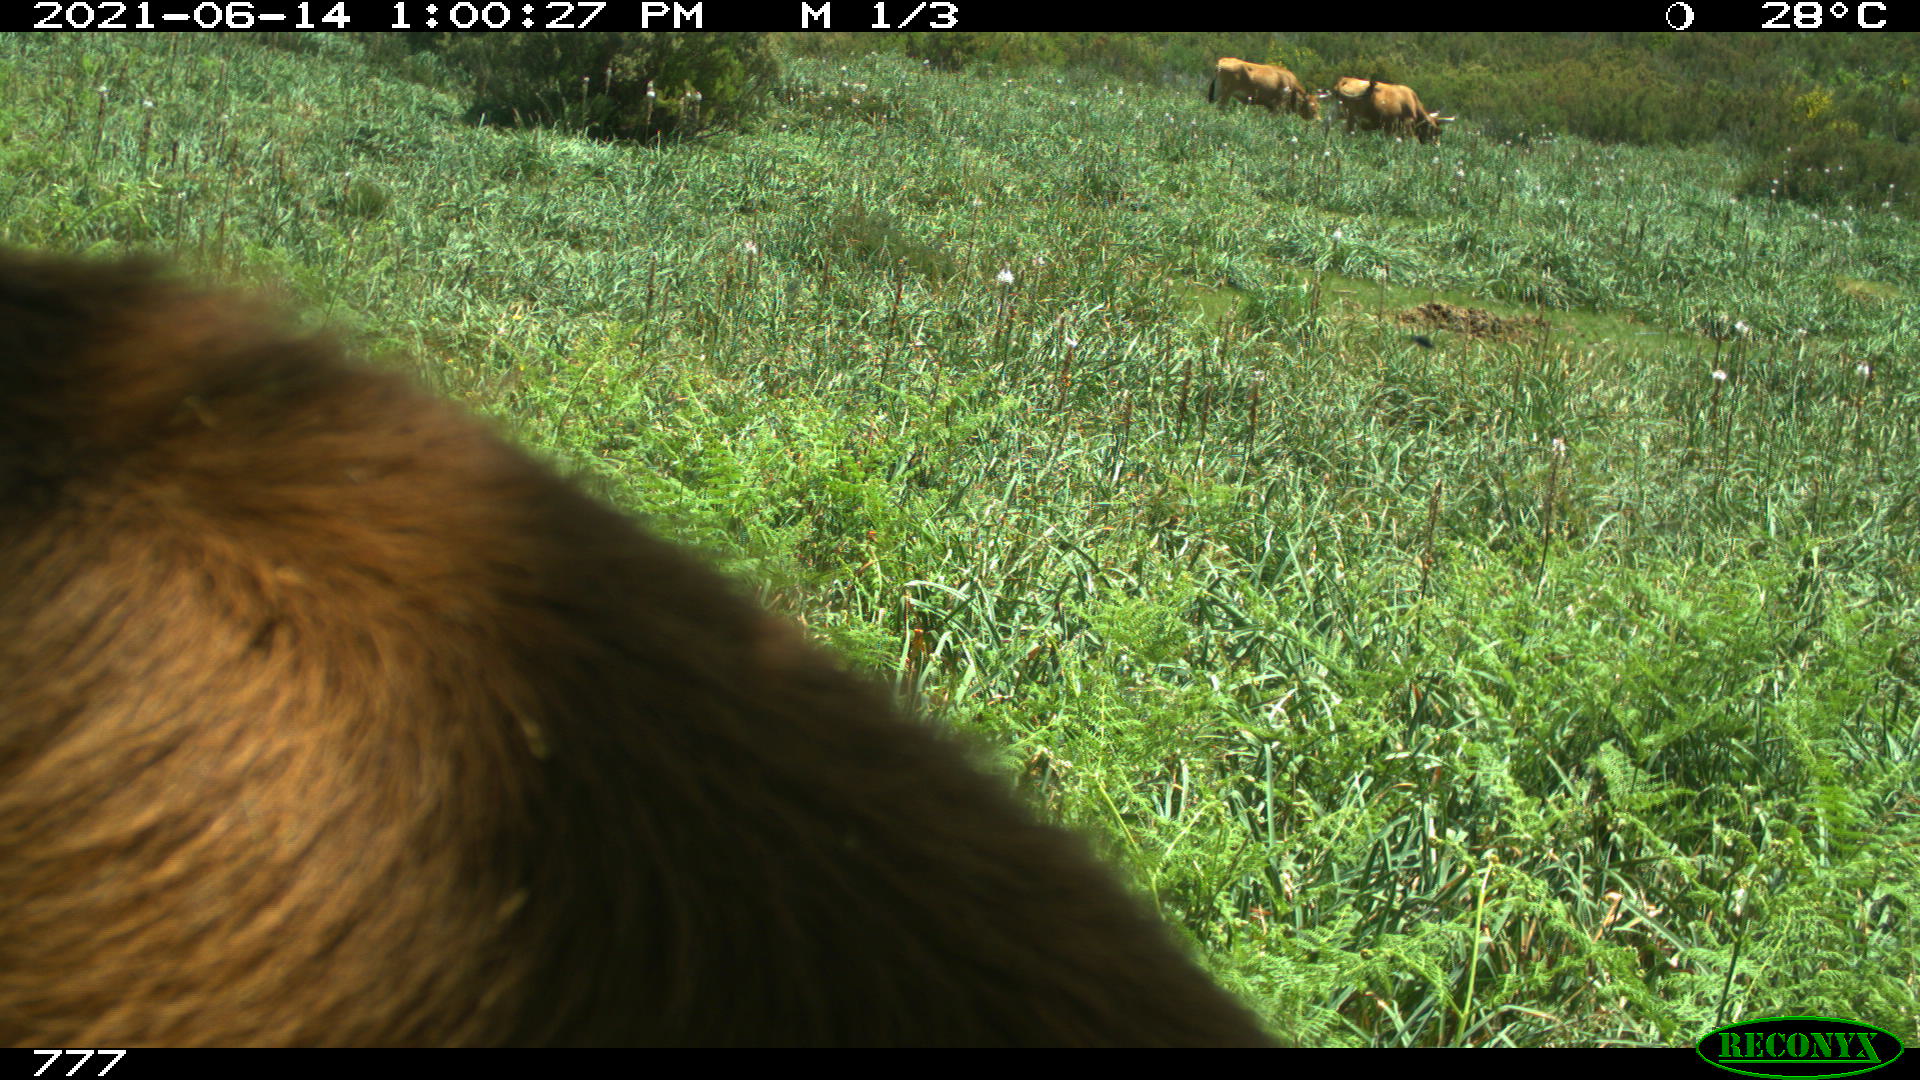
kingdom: Animalia
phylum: Chordata
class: Mammalia
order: Artiodactyla
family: Bovidae
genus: Bos
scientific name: Bos taurus
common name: Domesticated cattle
